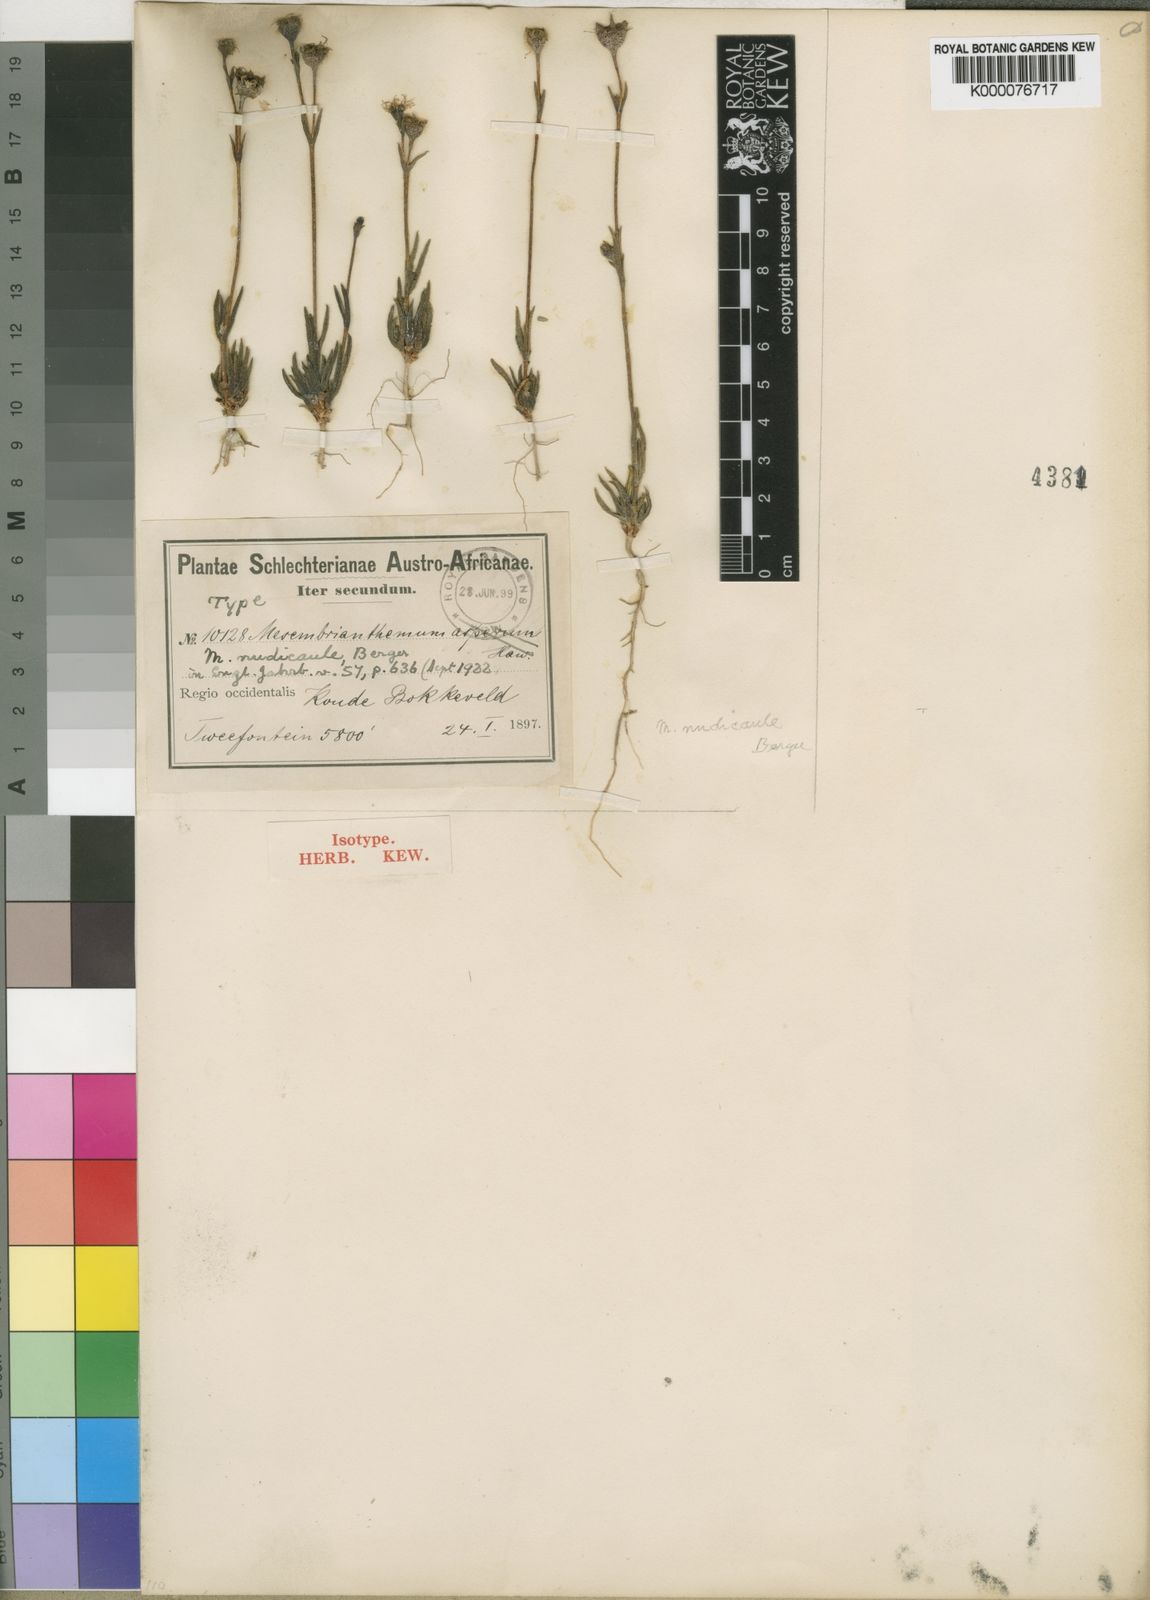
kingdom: Plantae
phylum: Tracheophyta
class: Magnoliopsida
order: Caryophyllales
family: Aizoaceae
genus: Erepsia
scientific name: Erepsia aspera
